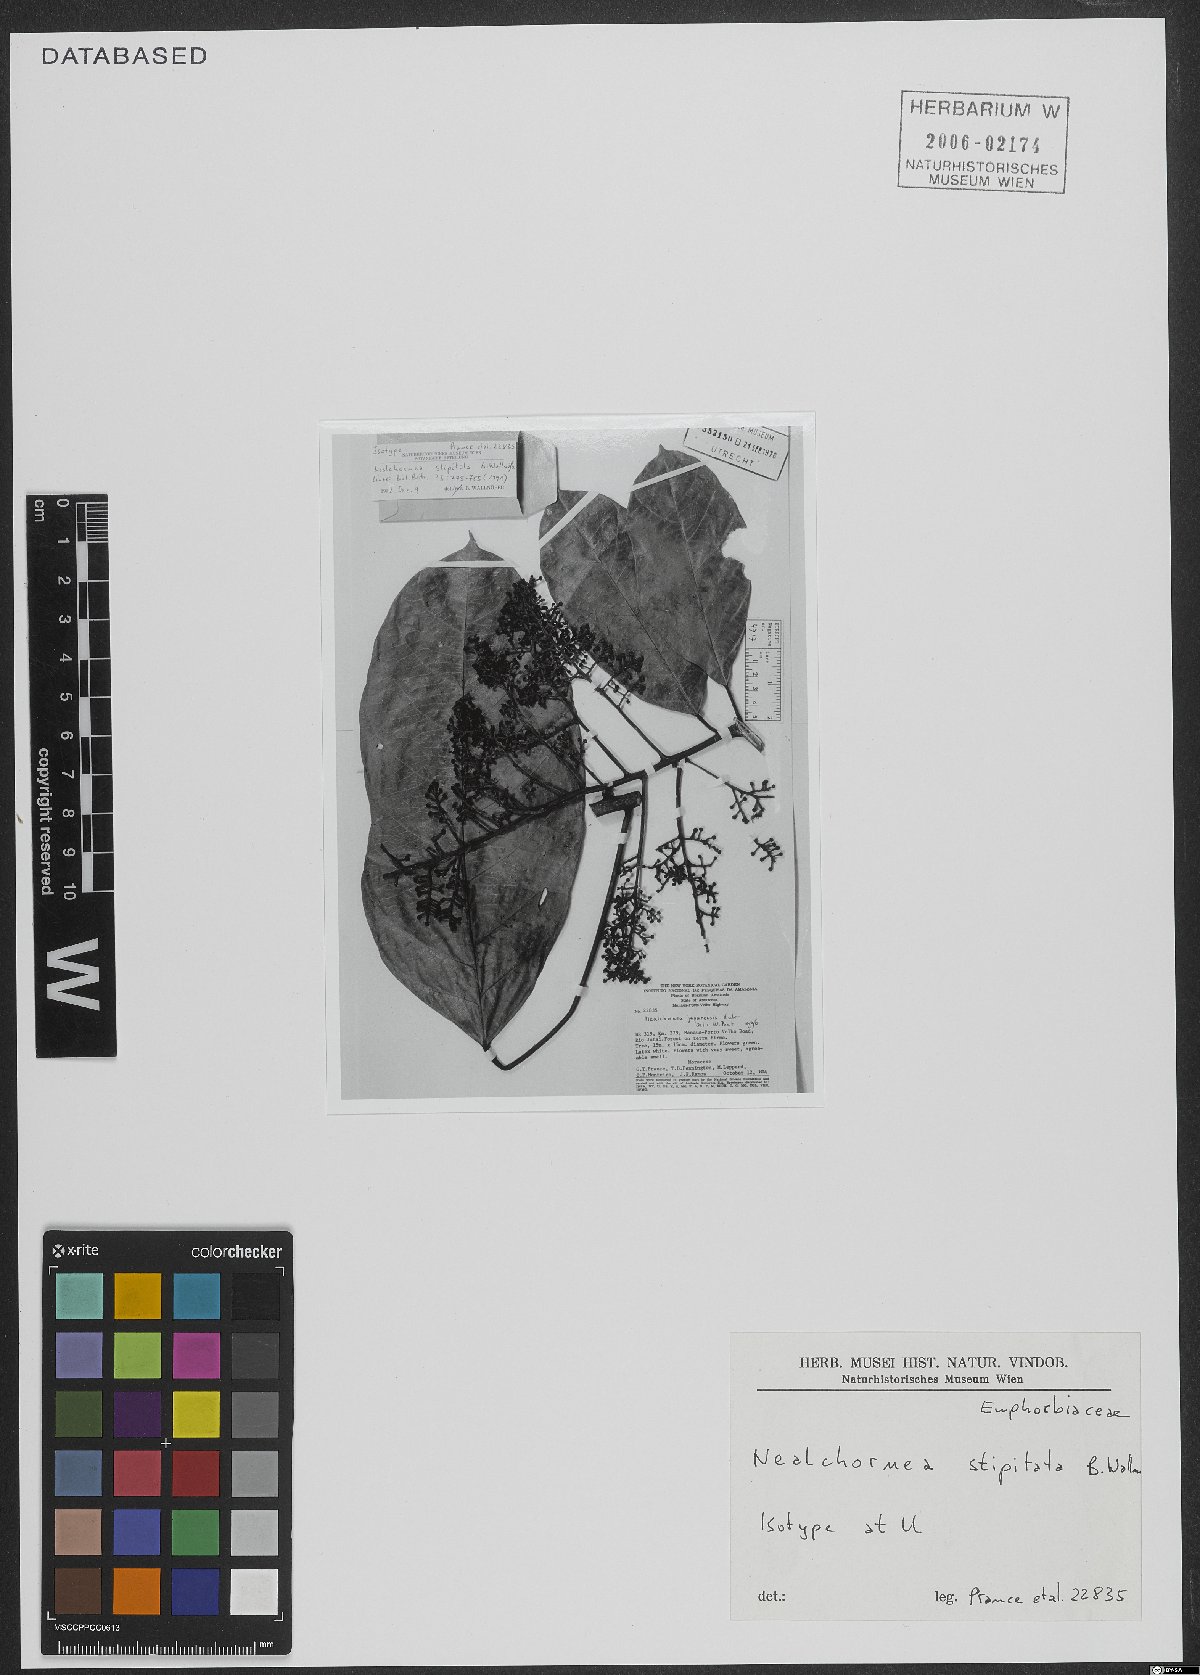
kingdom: Plantae
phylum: Tracheophyta
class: Magnoliopsida
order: Malpighiales
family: Euphorbiaceae
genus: Nealchornea
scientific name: Nealchornea stipitata
